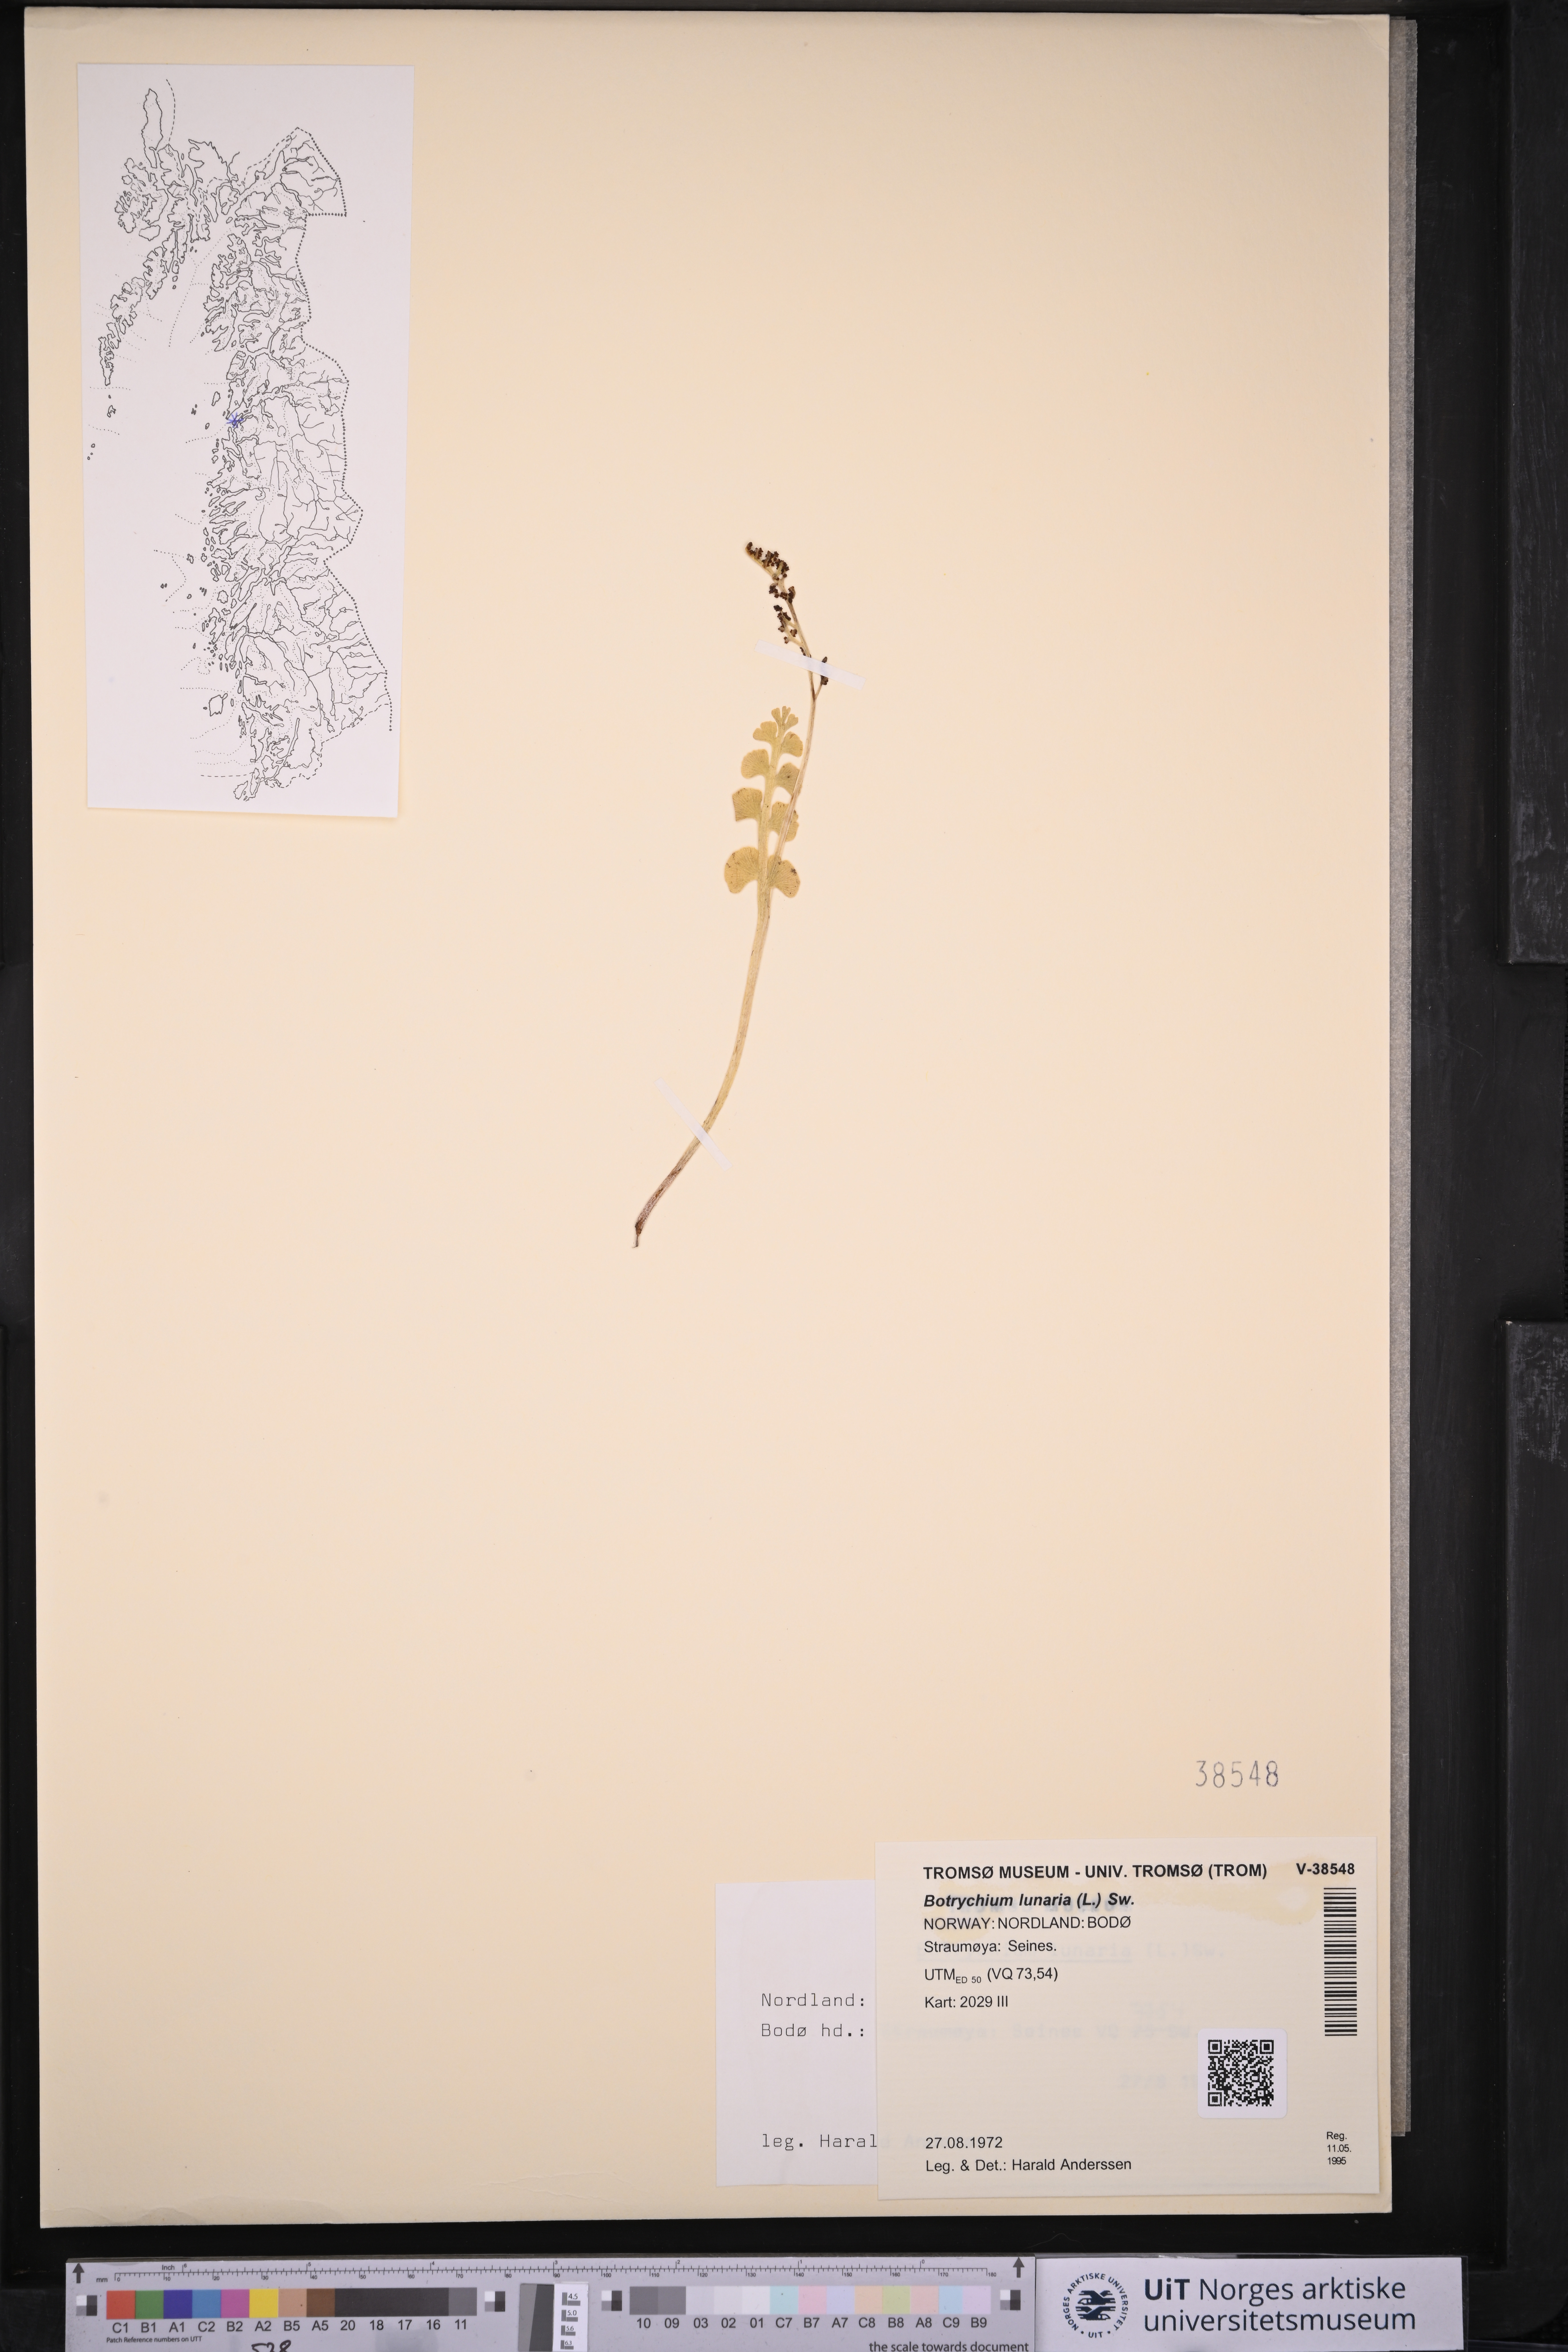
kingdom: Plantae
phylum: Tracheophyta
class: Polypodiopsida
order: Ophioglossales
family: Ophioglossaceae
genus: Botrychium
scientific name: Botrychium lunaria
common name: Moonwort
